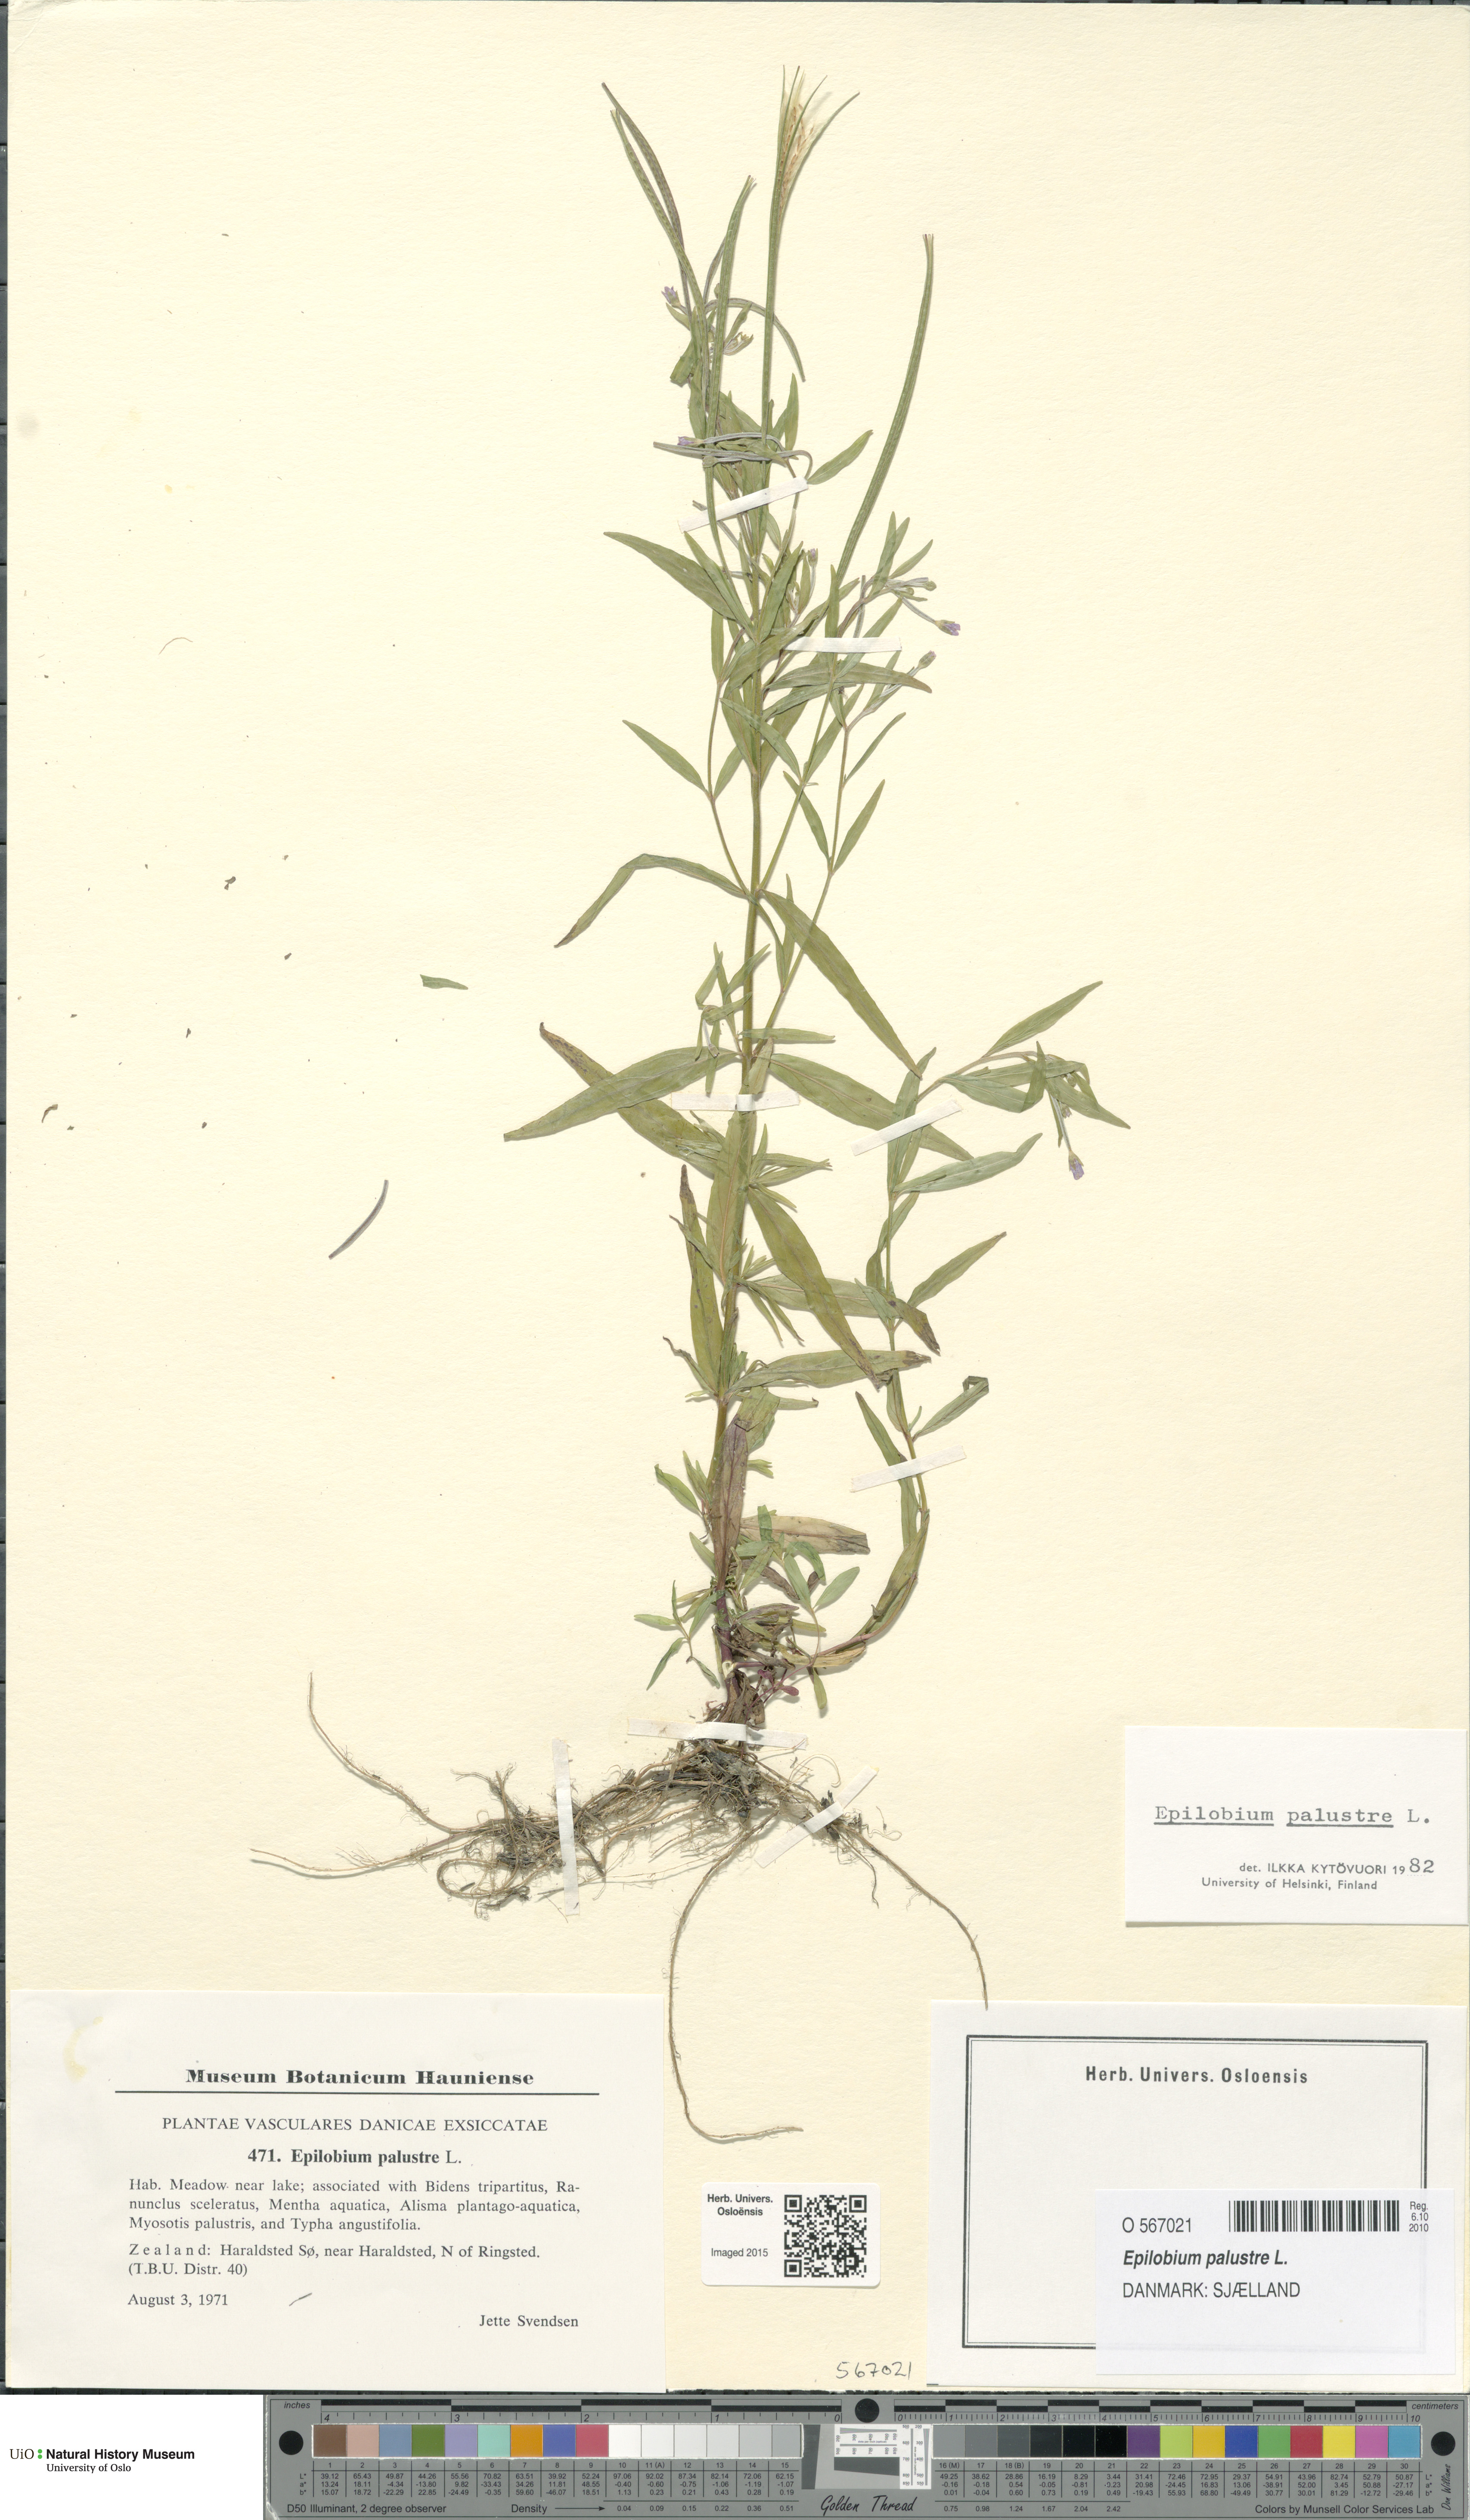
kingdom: Plantae
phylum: Tracheophyta
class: Magnoliopsida
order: Myrtales
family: Onagraceae
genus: Epilobium
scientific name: Epilobium palustre
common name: Marsh willowherb
